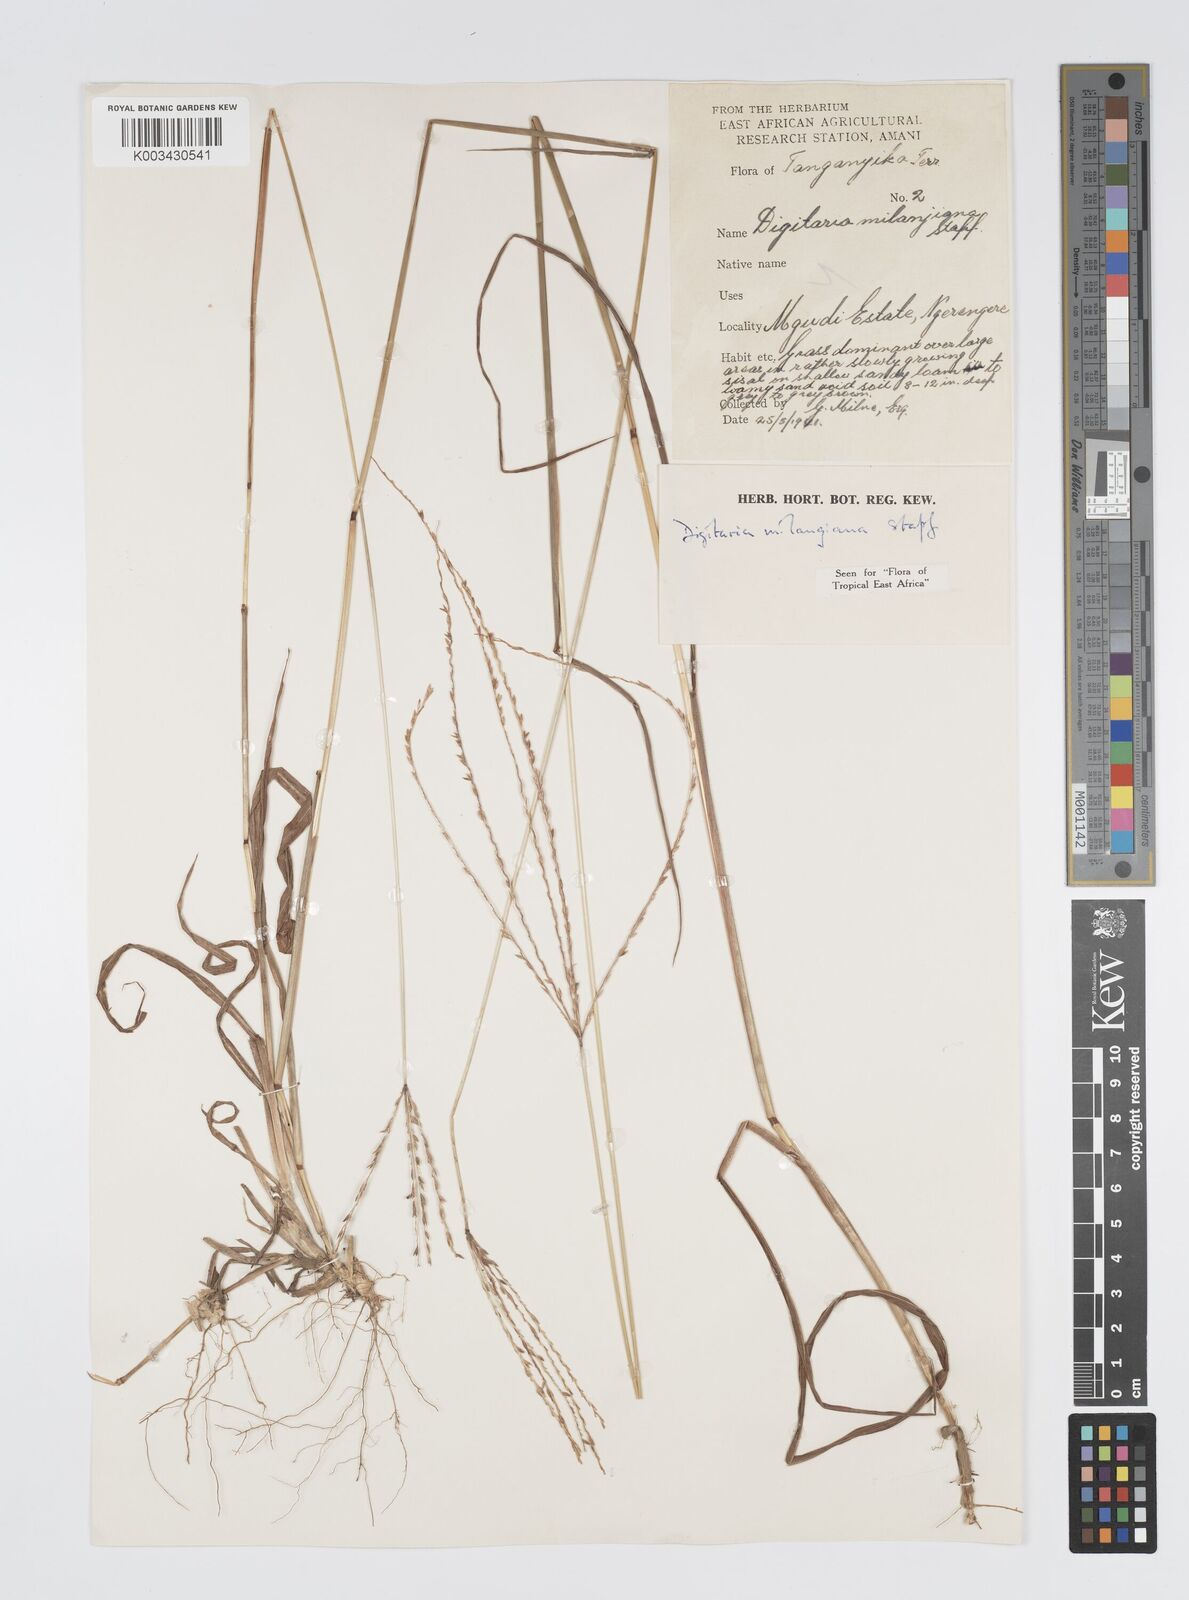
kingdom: Plantae
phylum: Tracheophyta
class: Liliopsida
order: Poales
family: Poaceae
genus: Digitaria
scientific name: Digitaria milanjiana
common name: Madagascar crabgrass
